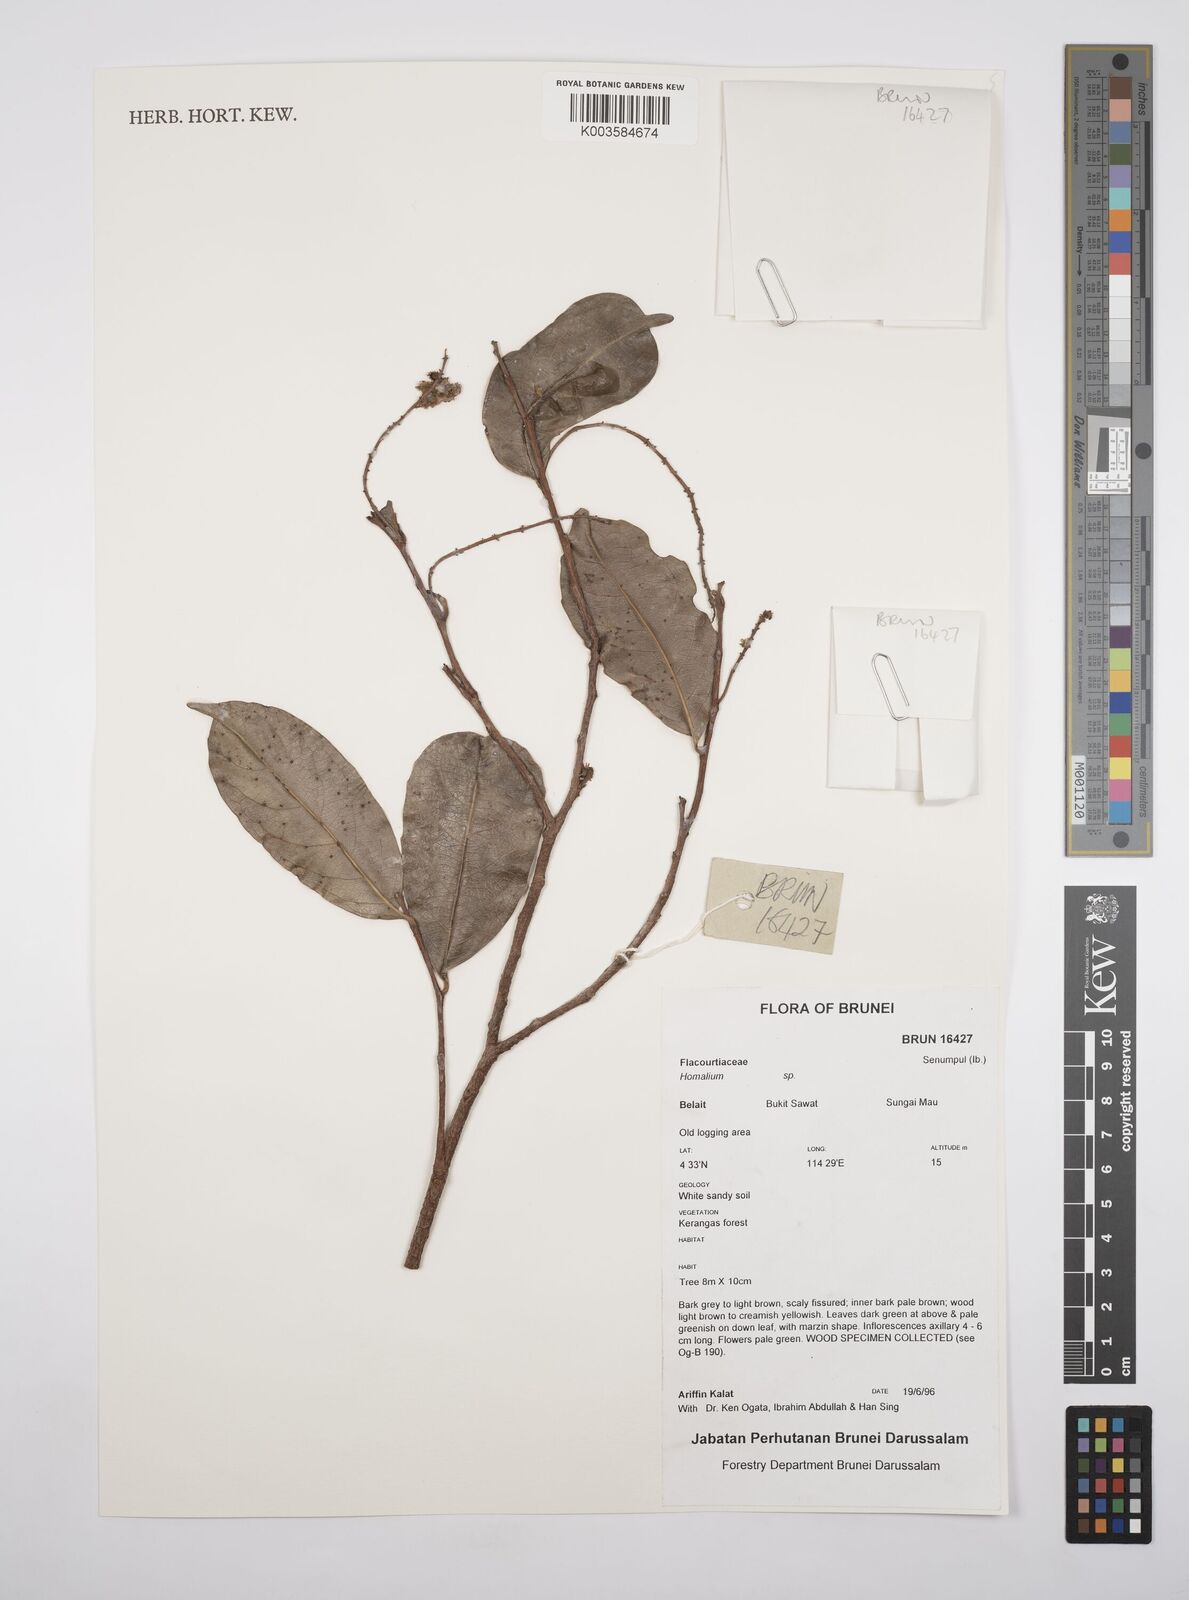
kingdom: Plantae
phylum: Tracheophyta
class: Magnoliopsida
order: Malpighiales
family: Salicaceae
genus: Homalium
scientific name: Homalium
